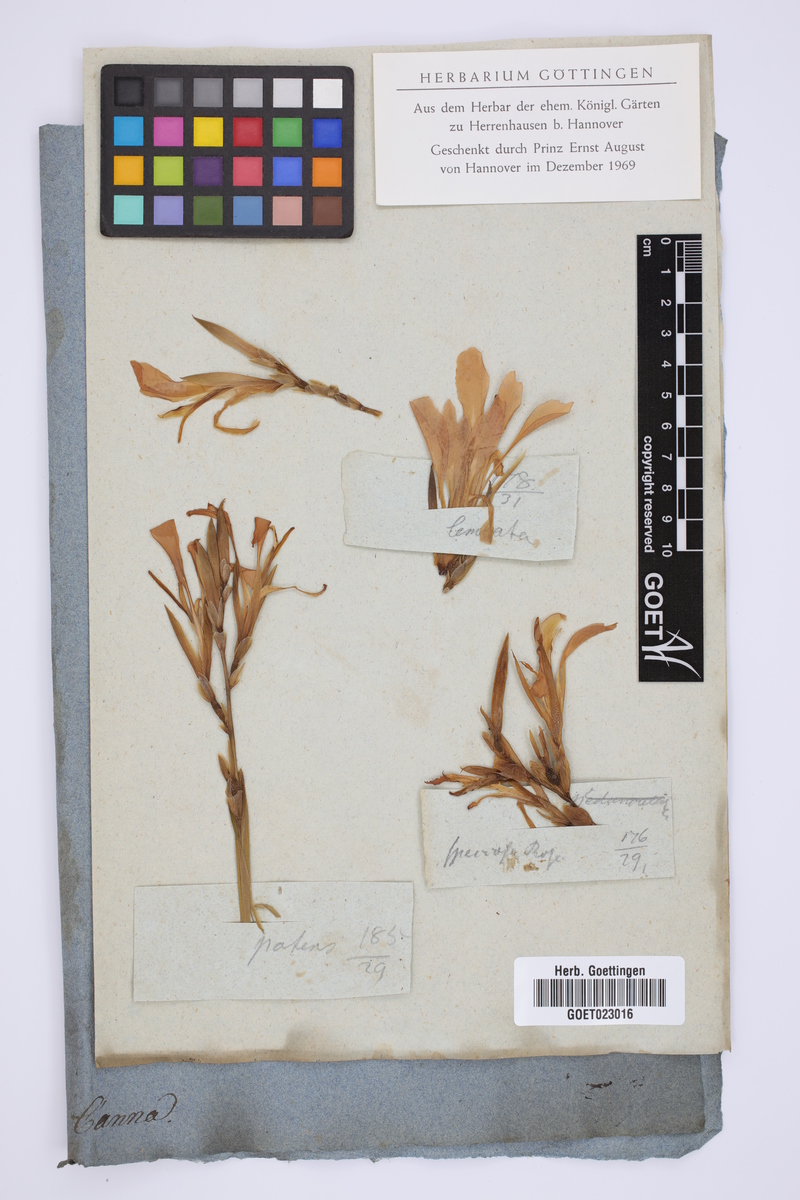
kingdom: Plantae
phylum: Tracheophyta
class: Liliopsida
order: Zingiberales
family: Cannaceae
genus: Canna
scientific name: Canna
